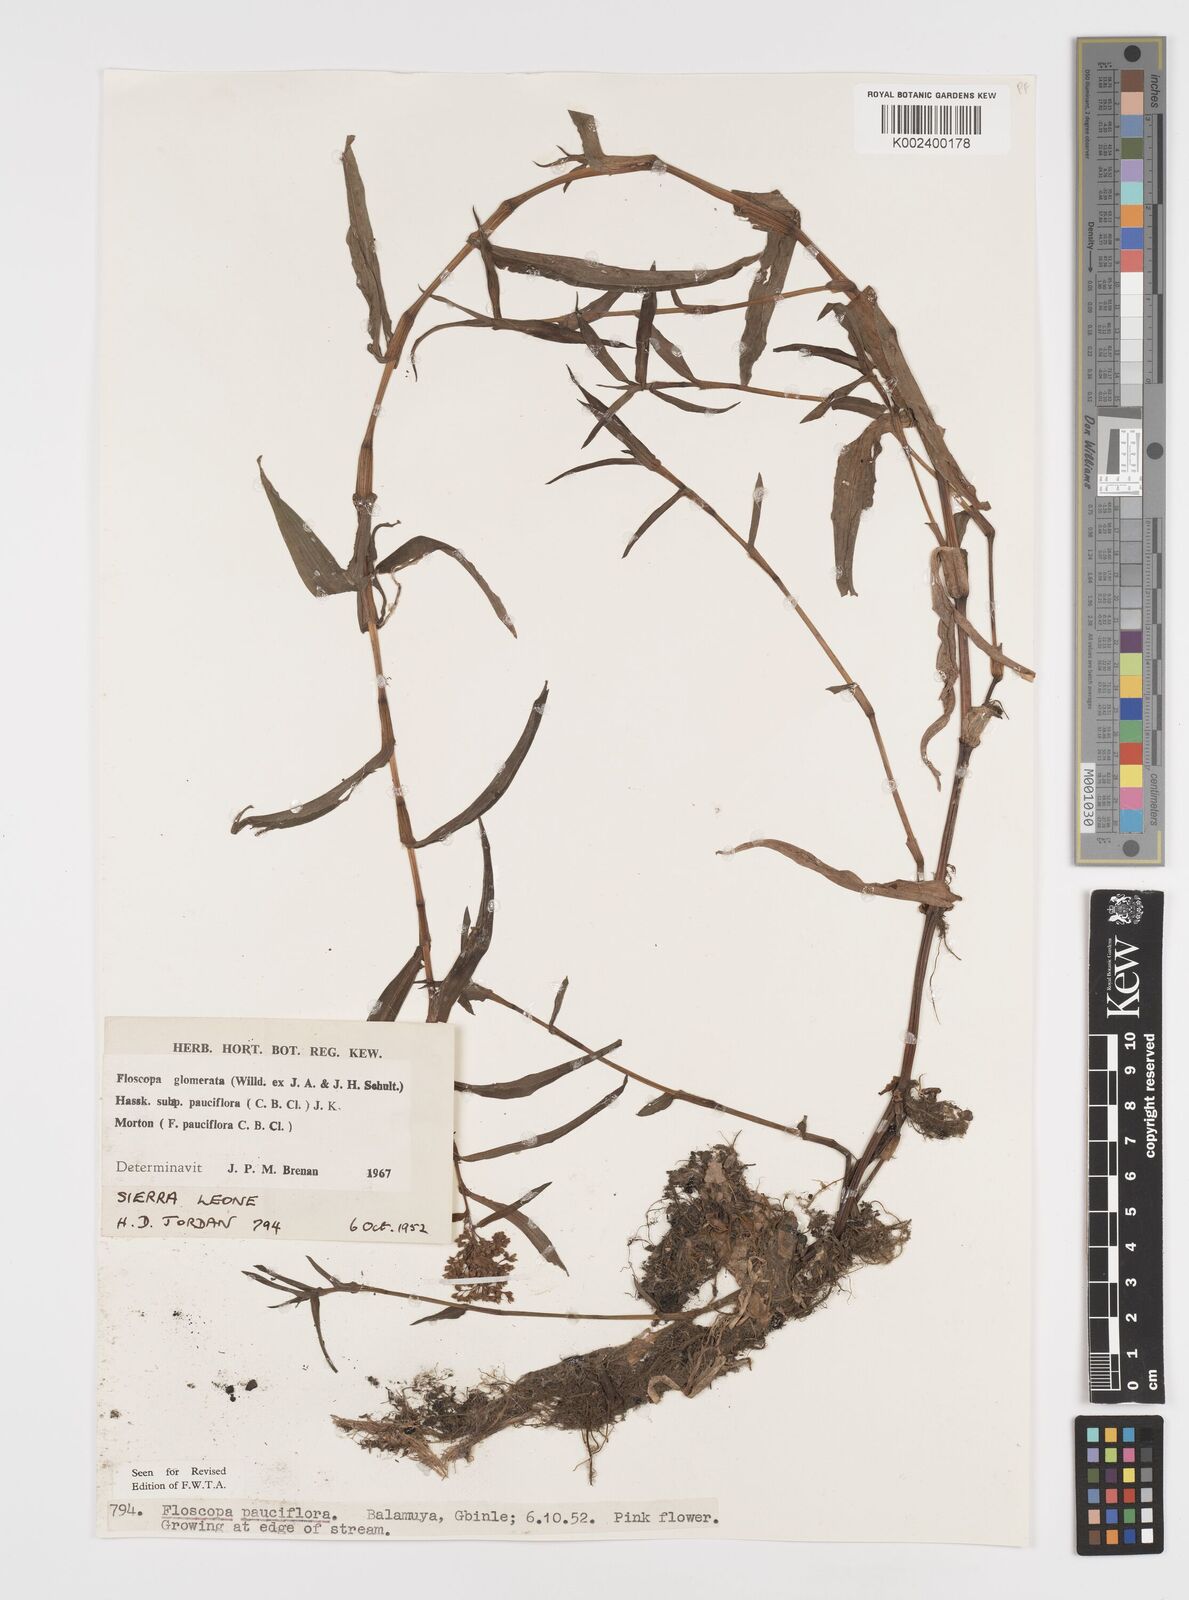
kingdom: Plantae
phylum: Tracheophyta
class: Liliopsida
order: Commelinales
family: Commelinaceae
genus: Floscopa
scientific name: Floscopa glomerata
